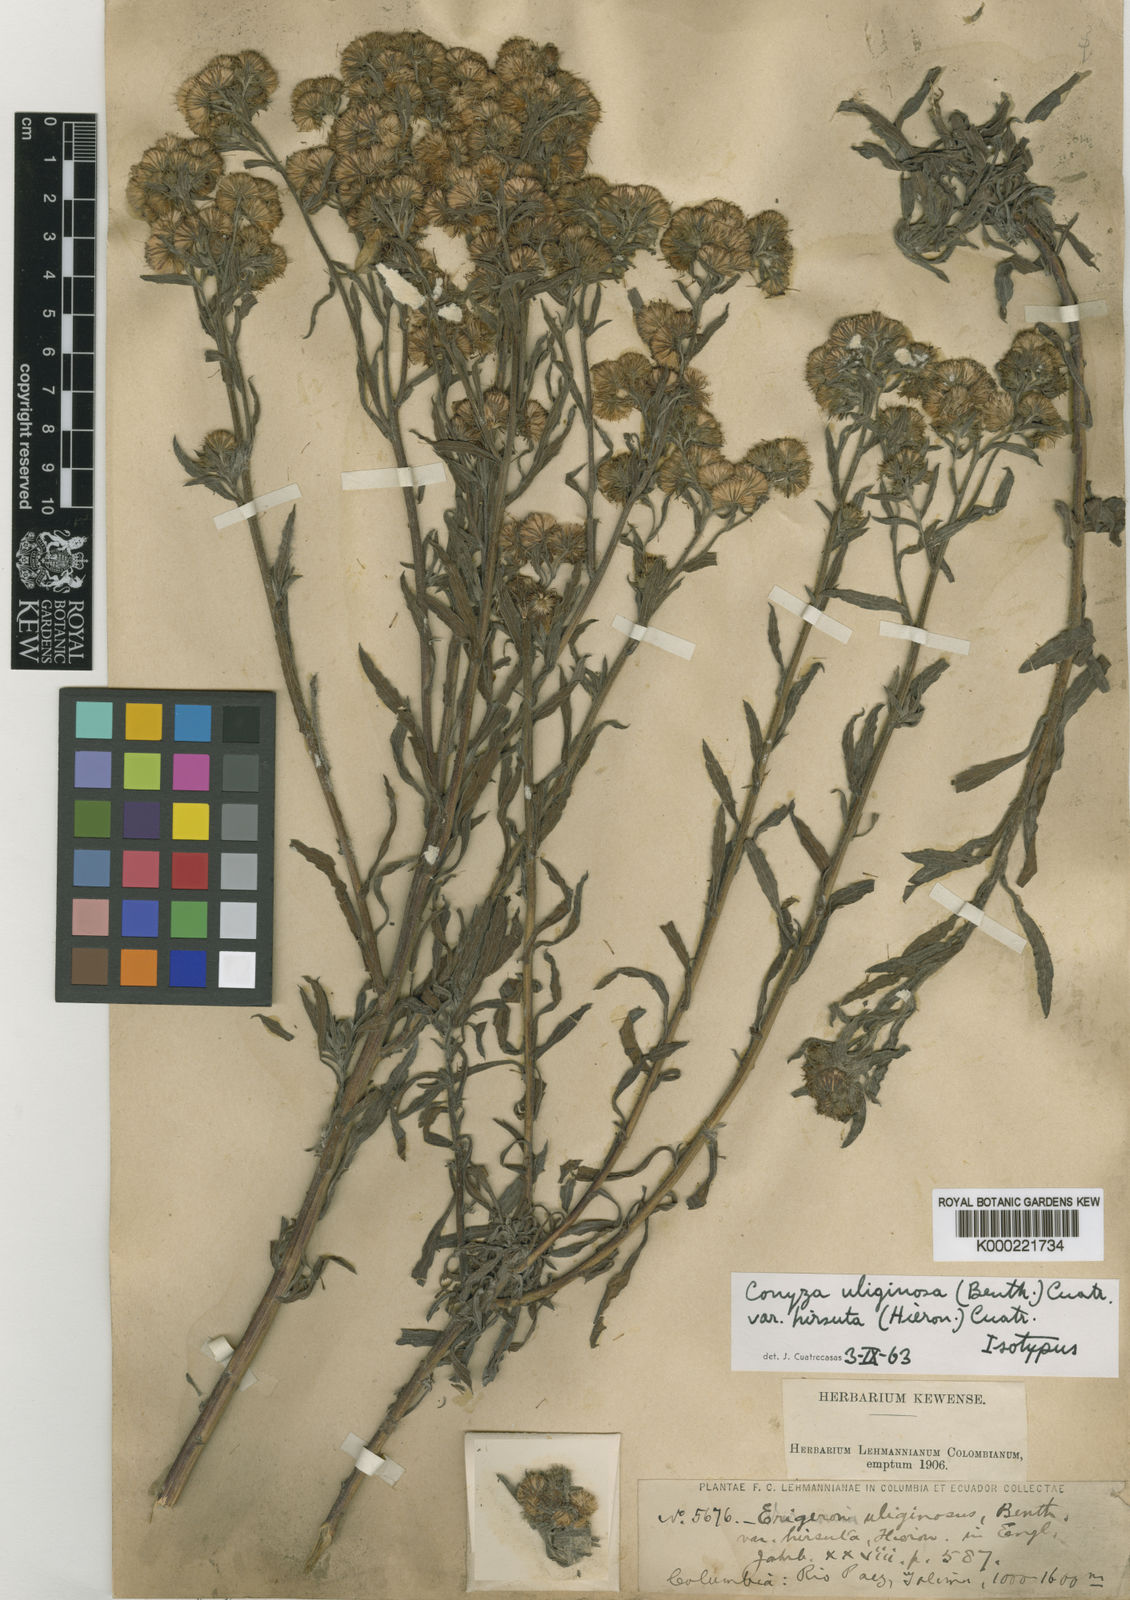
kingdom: Plantae
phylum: Tracheophyta
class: Magnoliopsida
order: Asterales
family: Asteraceae
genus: Conyza
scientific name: Conyza
